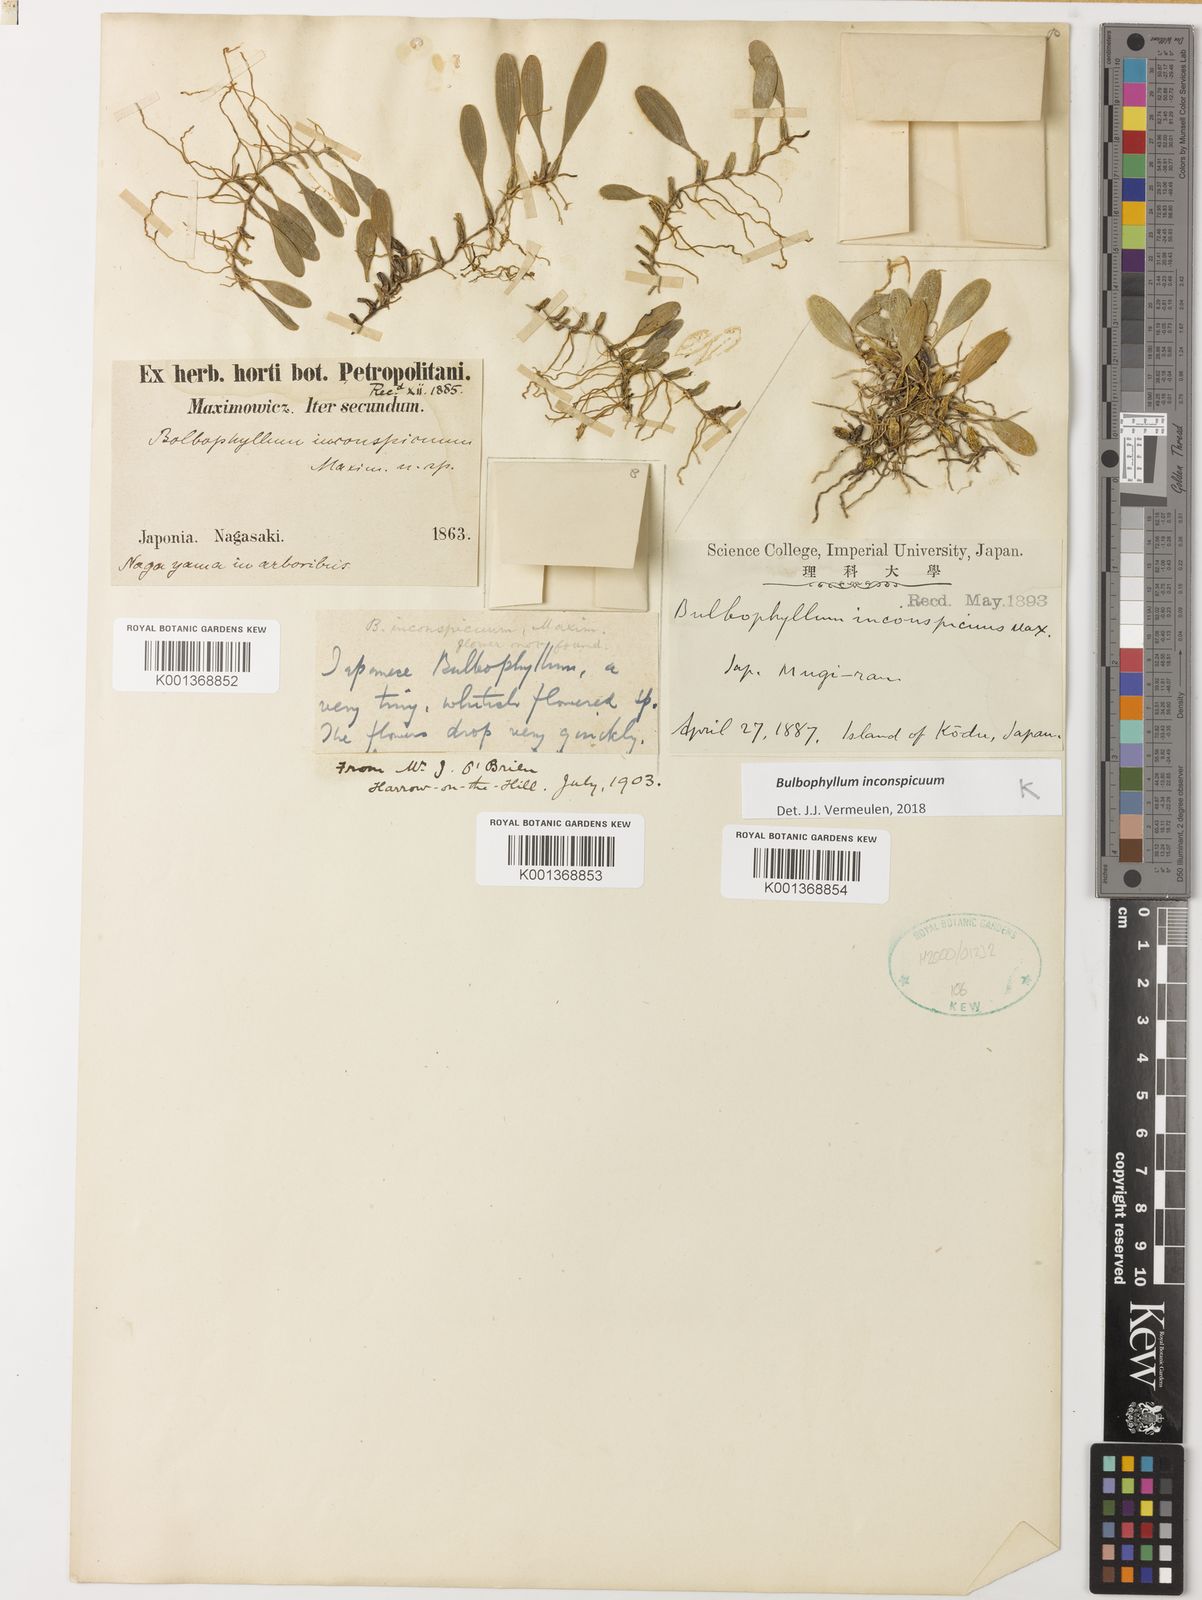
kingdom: Plantae
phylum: Tracheophyta
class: Liliopsida
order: Asparagales
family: Orchidaceae
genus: Bulbophyllum
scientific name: Bulbophyllum inconspicuum
